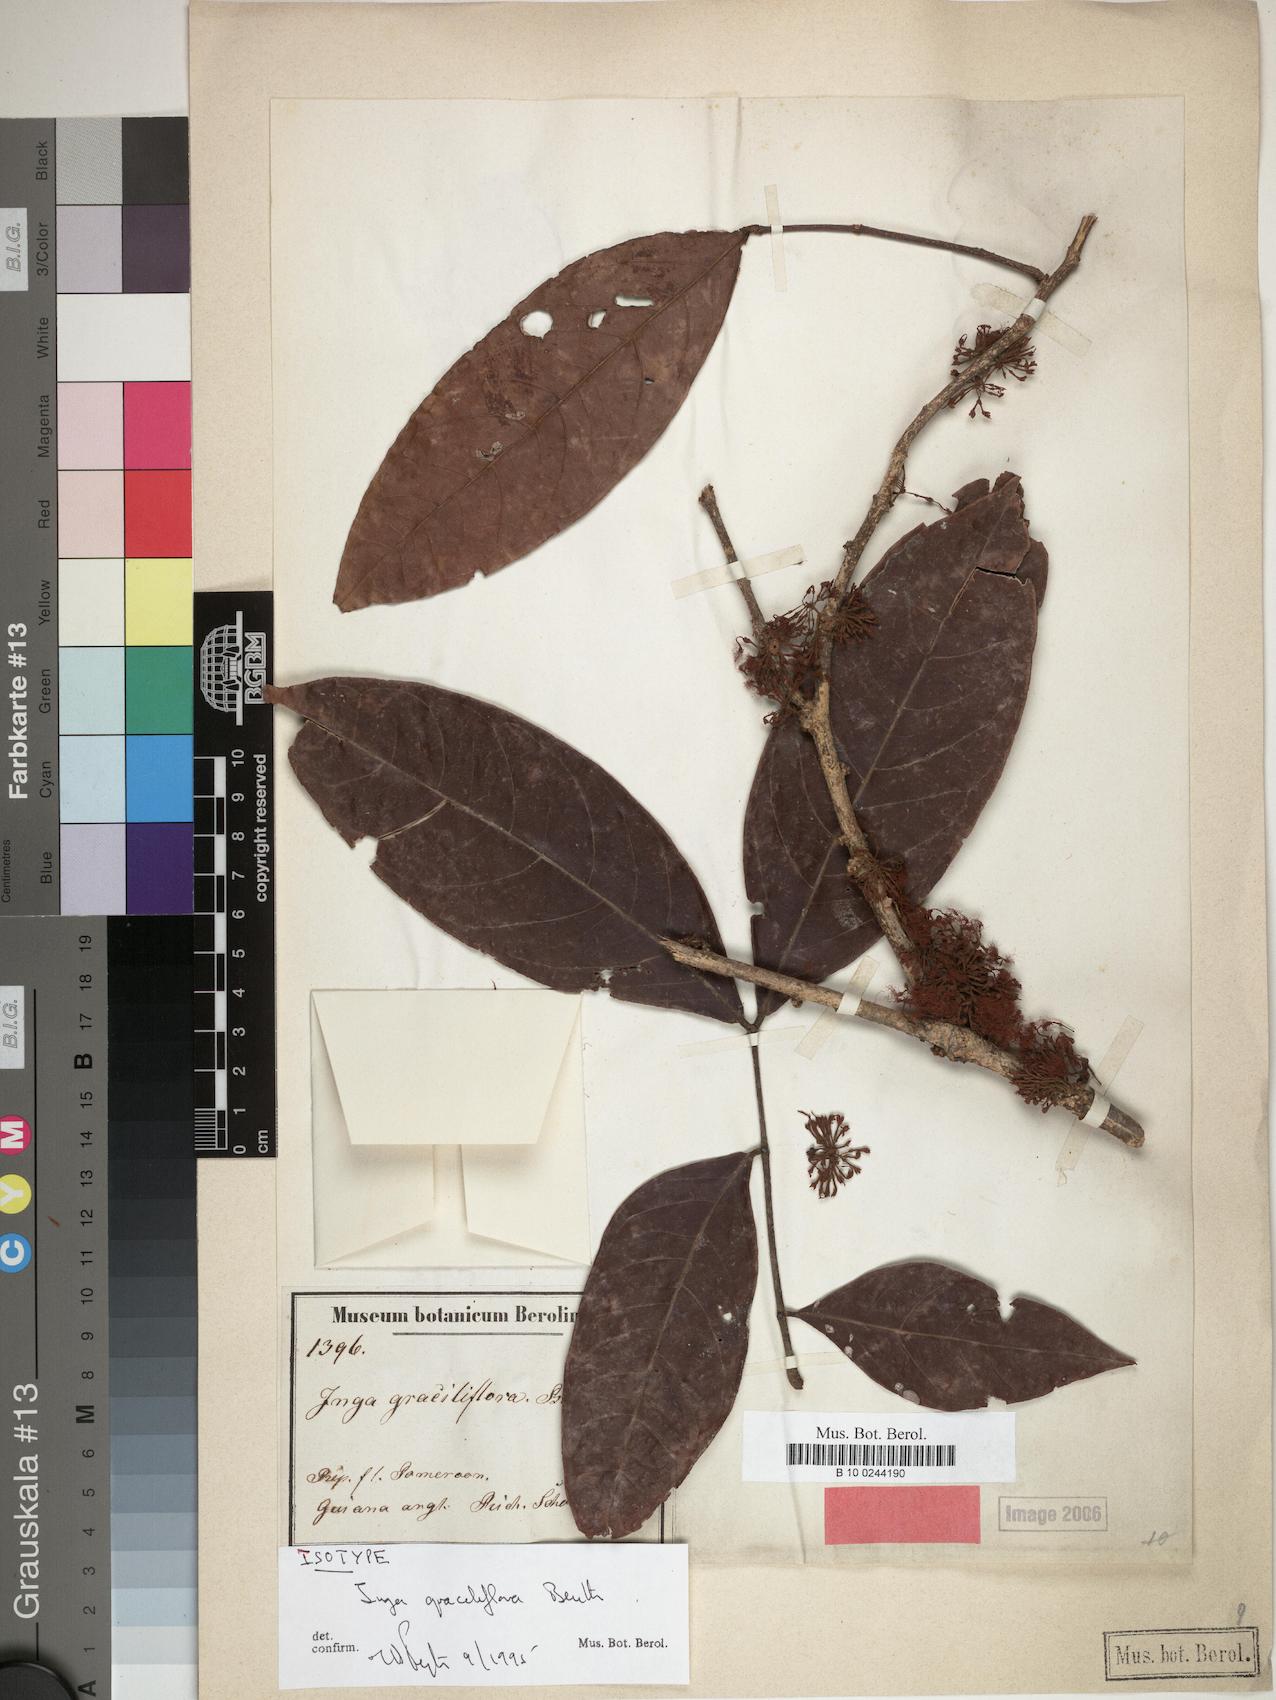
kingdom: Plantae
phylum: Tracheophyta
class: Magnoliopsida
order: Fabales
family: Fabaceae
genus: Inga
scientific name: Inga graciliflora
